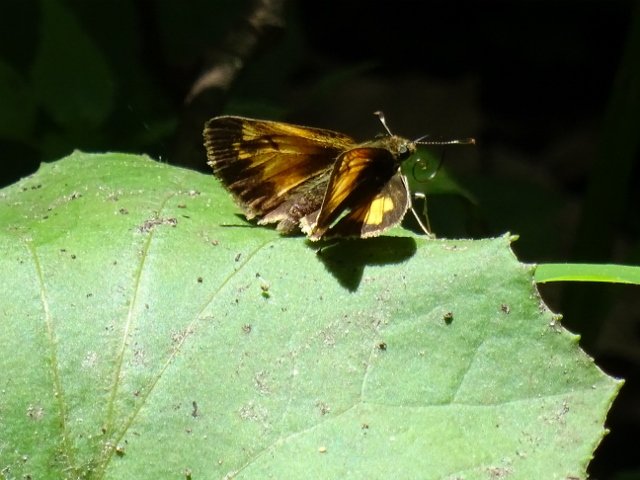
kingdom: Animalia
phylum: Arthropoda
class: Insecta
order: Lepidoptera
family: Hesperiidae
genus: Lon
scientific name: Lon hobomok
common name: Hobomok Skipper
